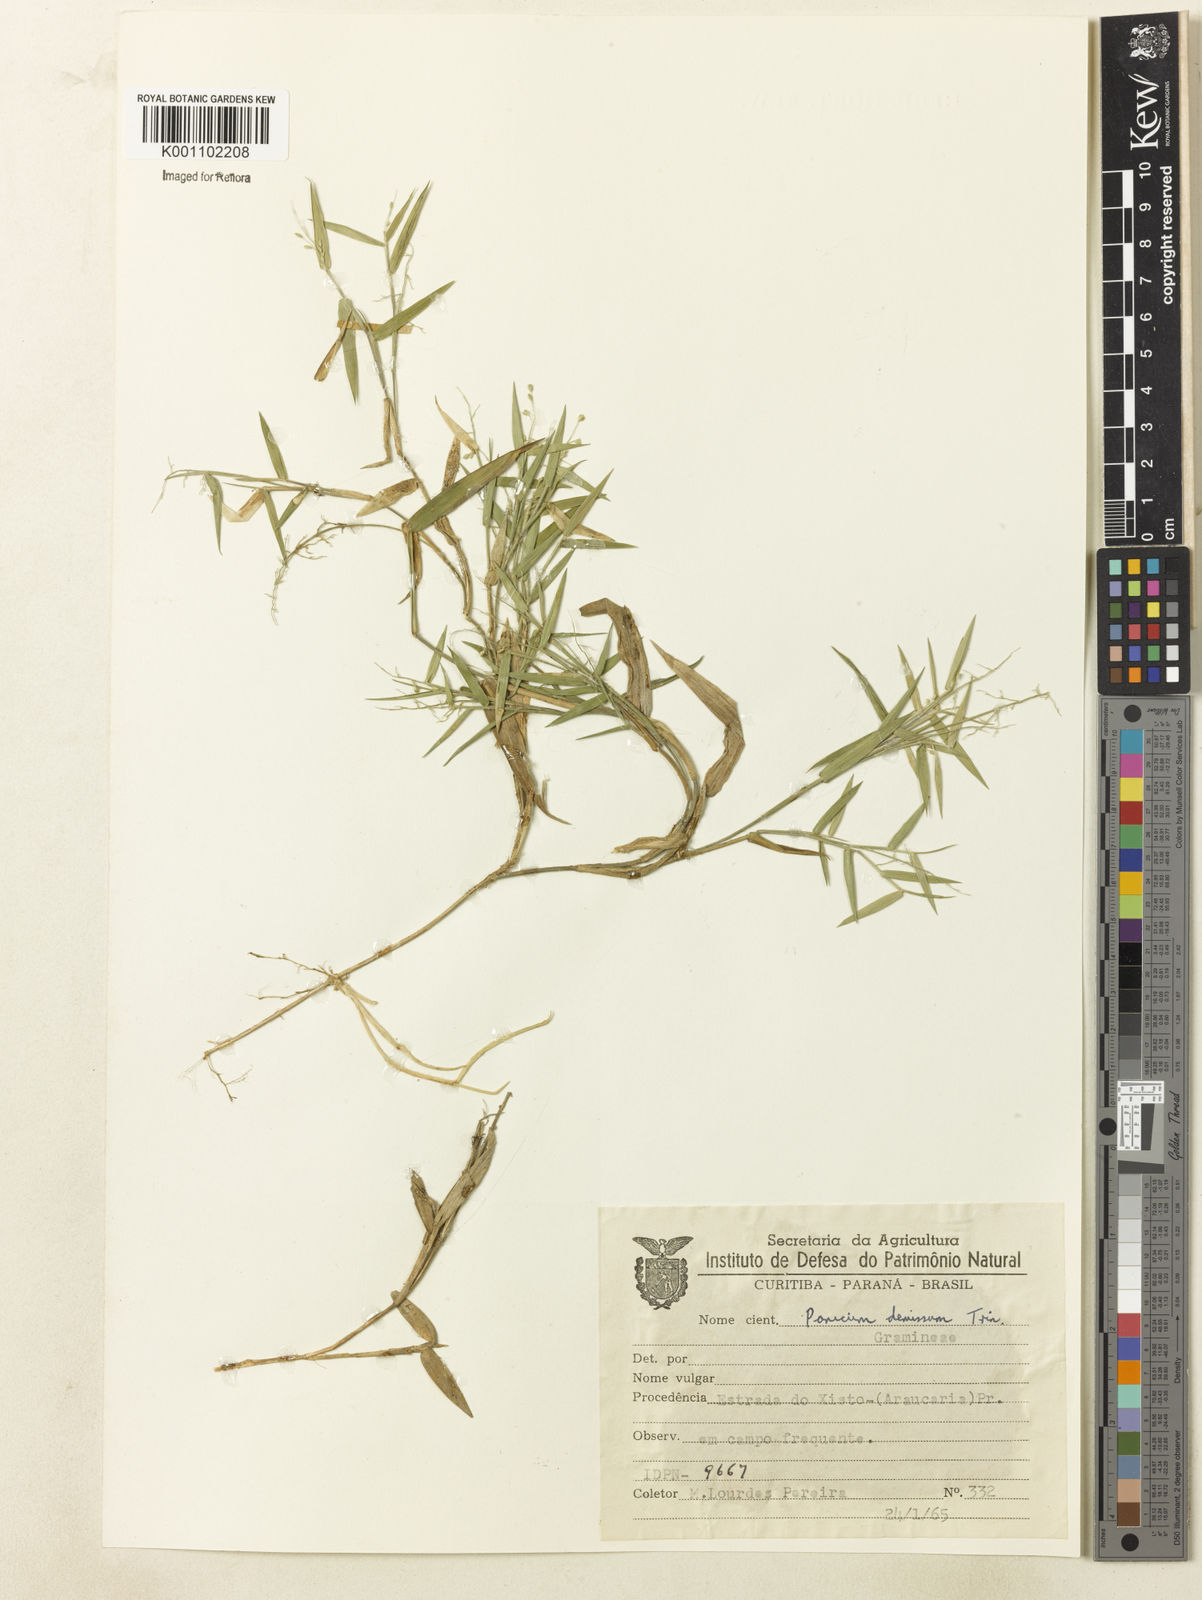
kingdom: Plantae
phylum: Tracheophyta
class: Liliopsida
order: Poales
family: Poaceae
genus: Dichanthelium
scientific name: Dichanthelium sabulorum
